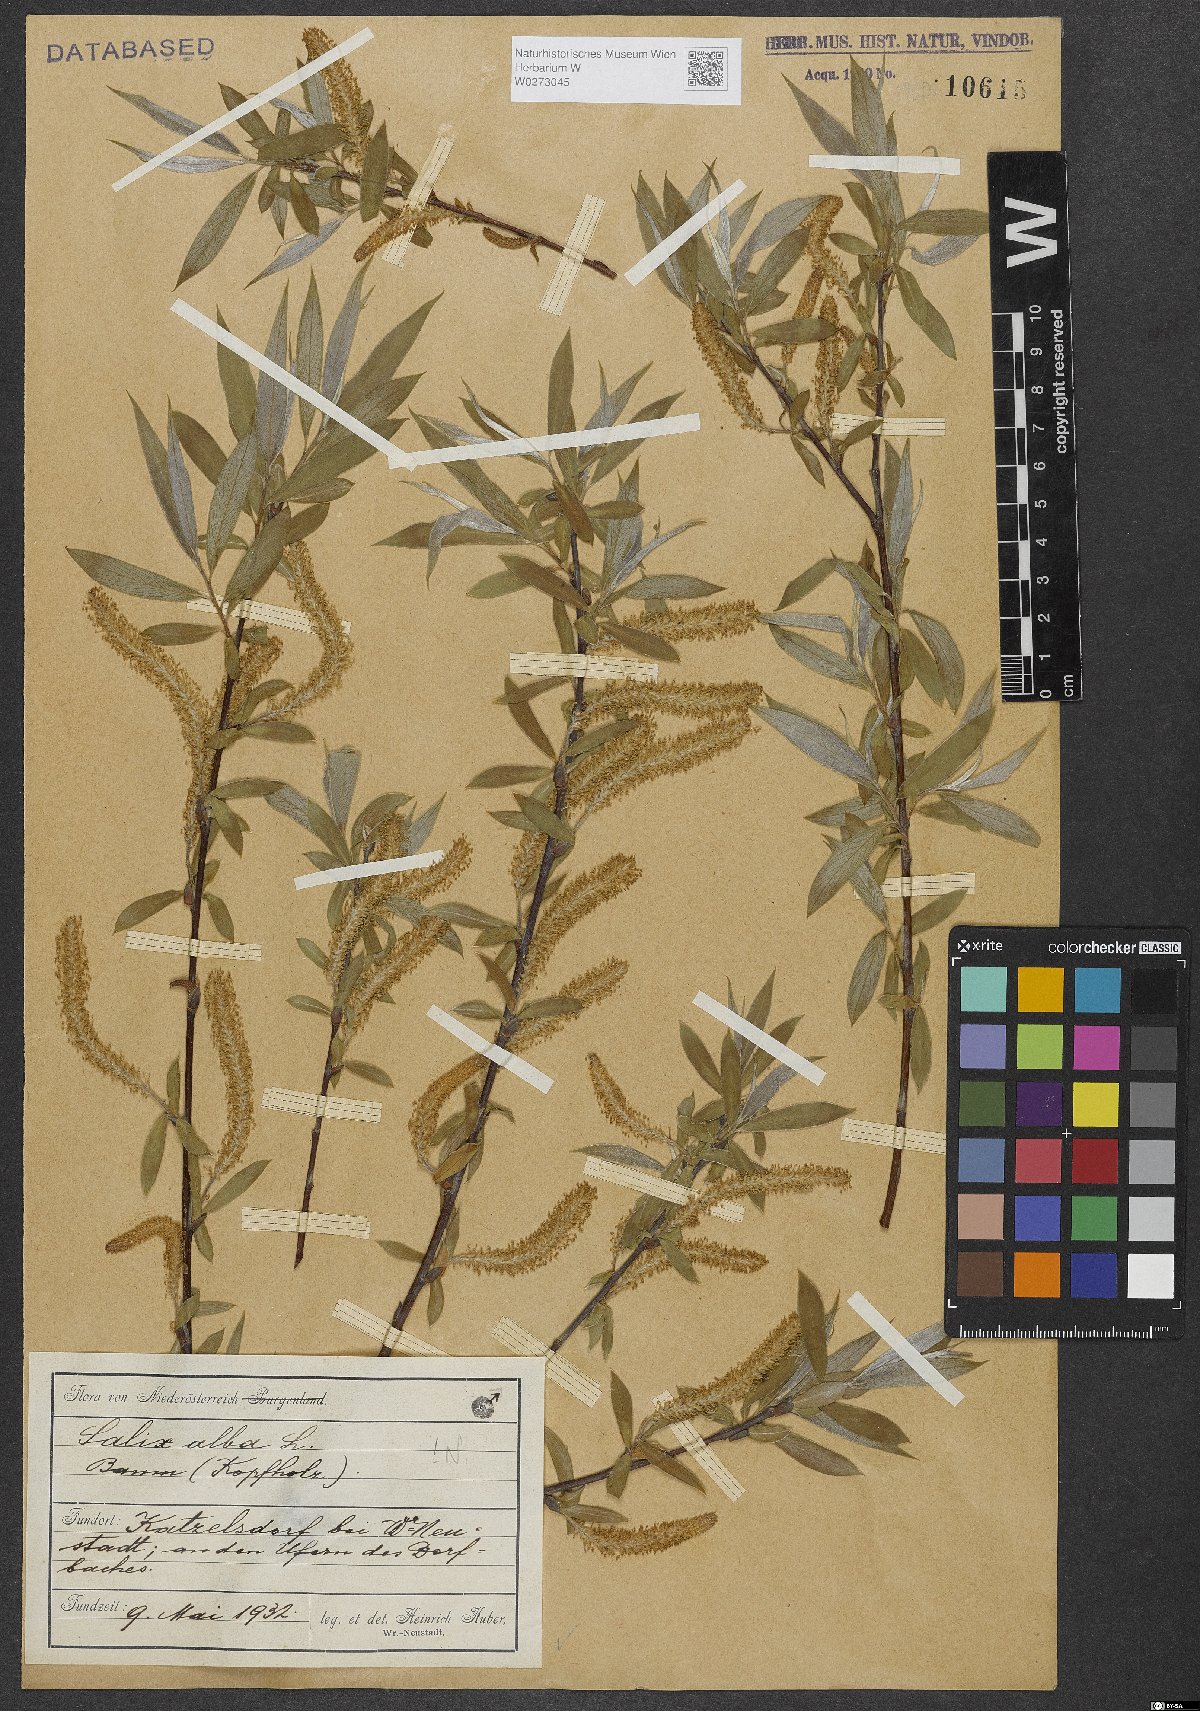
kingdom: Plantae
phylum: Tracheophyta
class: Magnoliopsida
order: Malpighiales
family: Salicaceae
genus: Salix
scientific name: Salix alba
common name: White willow
